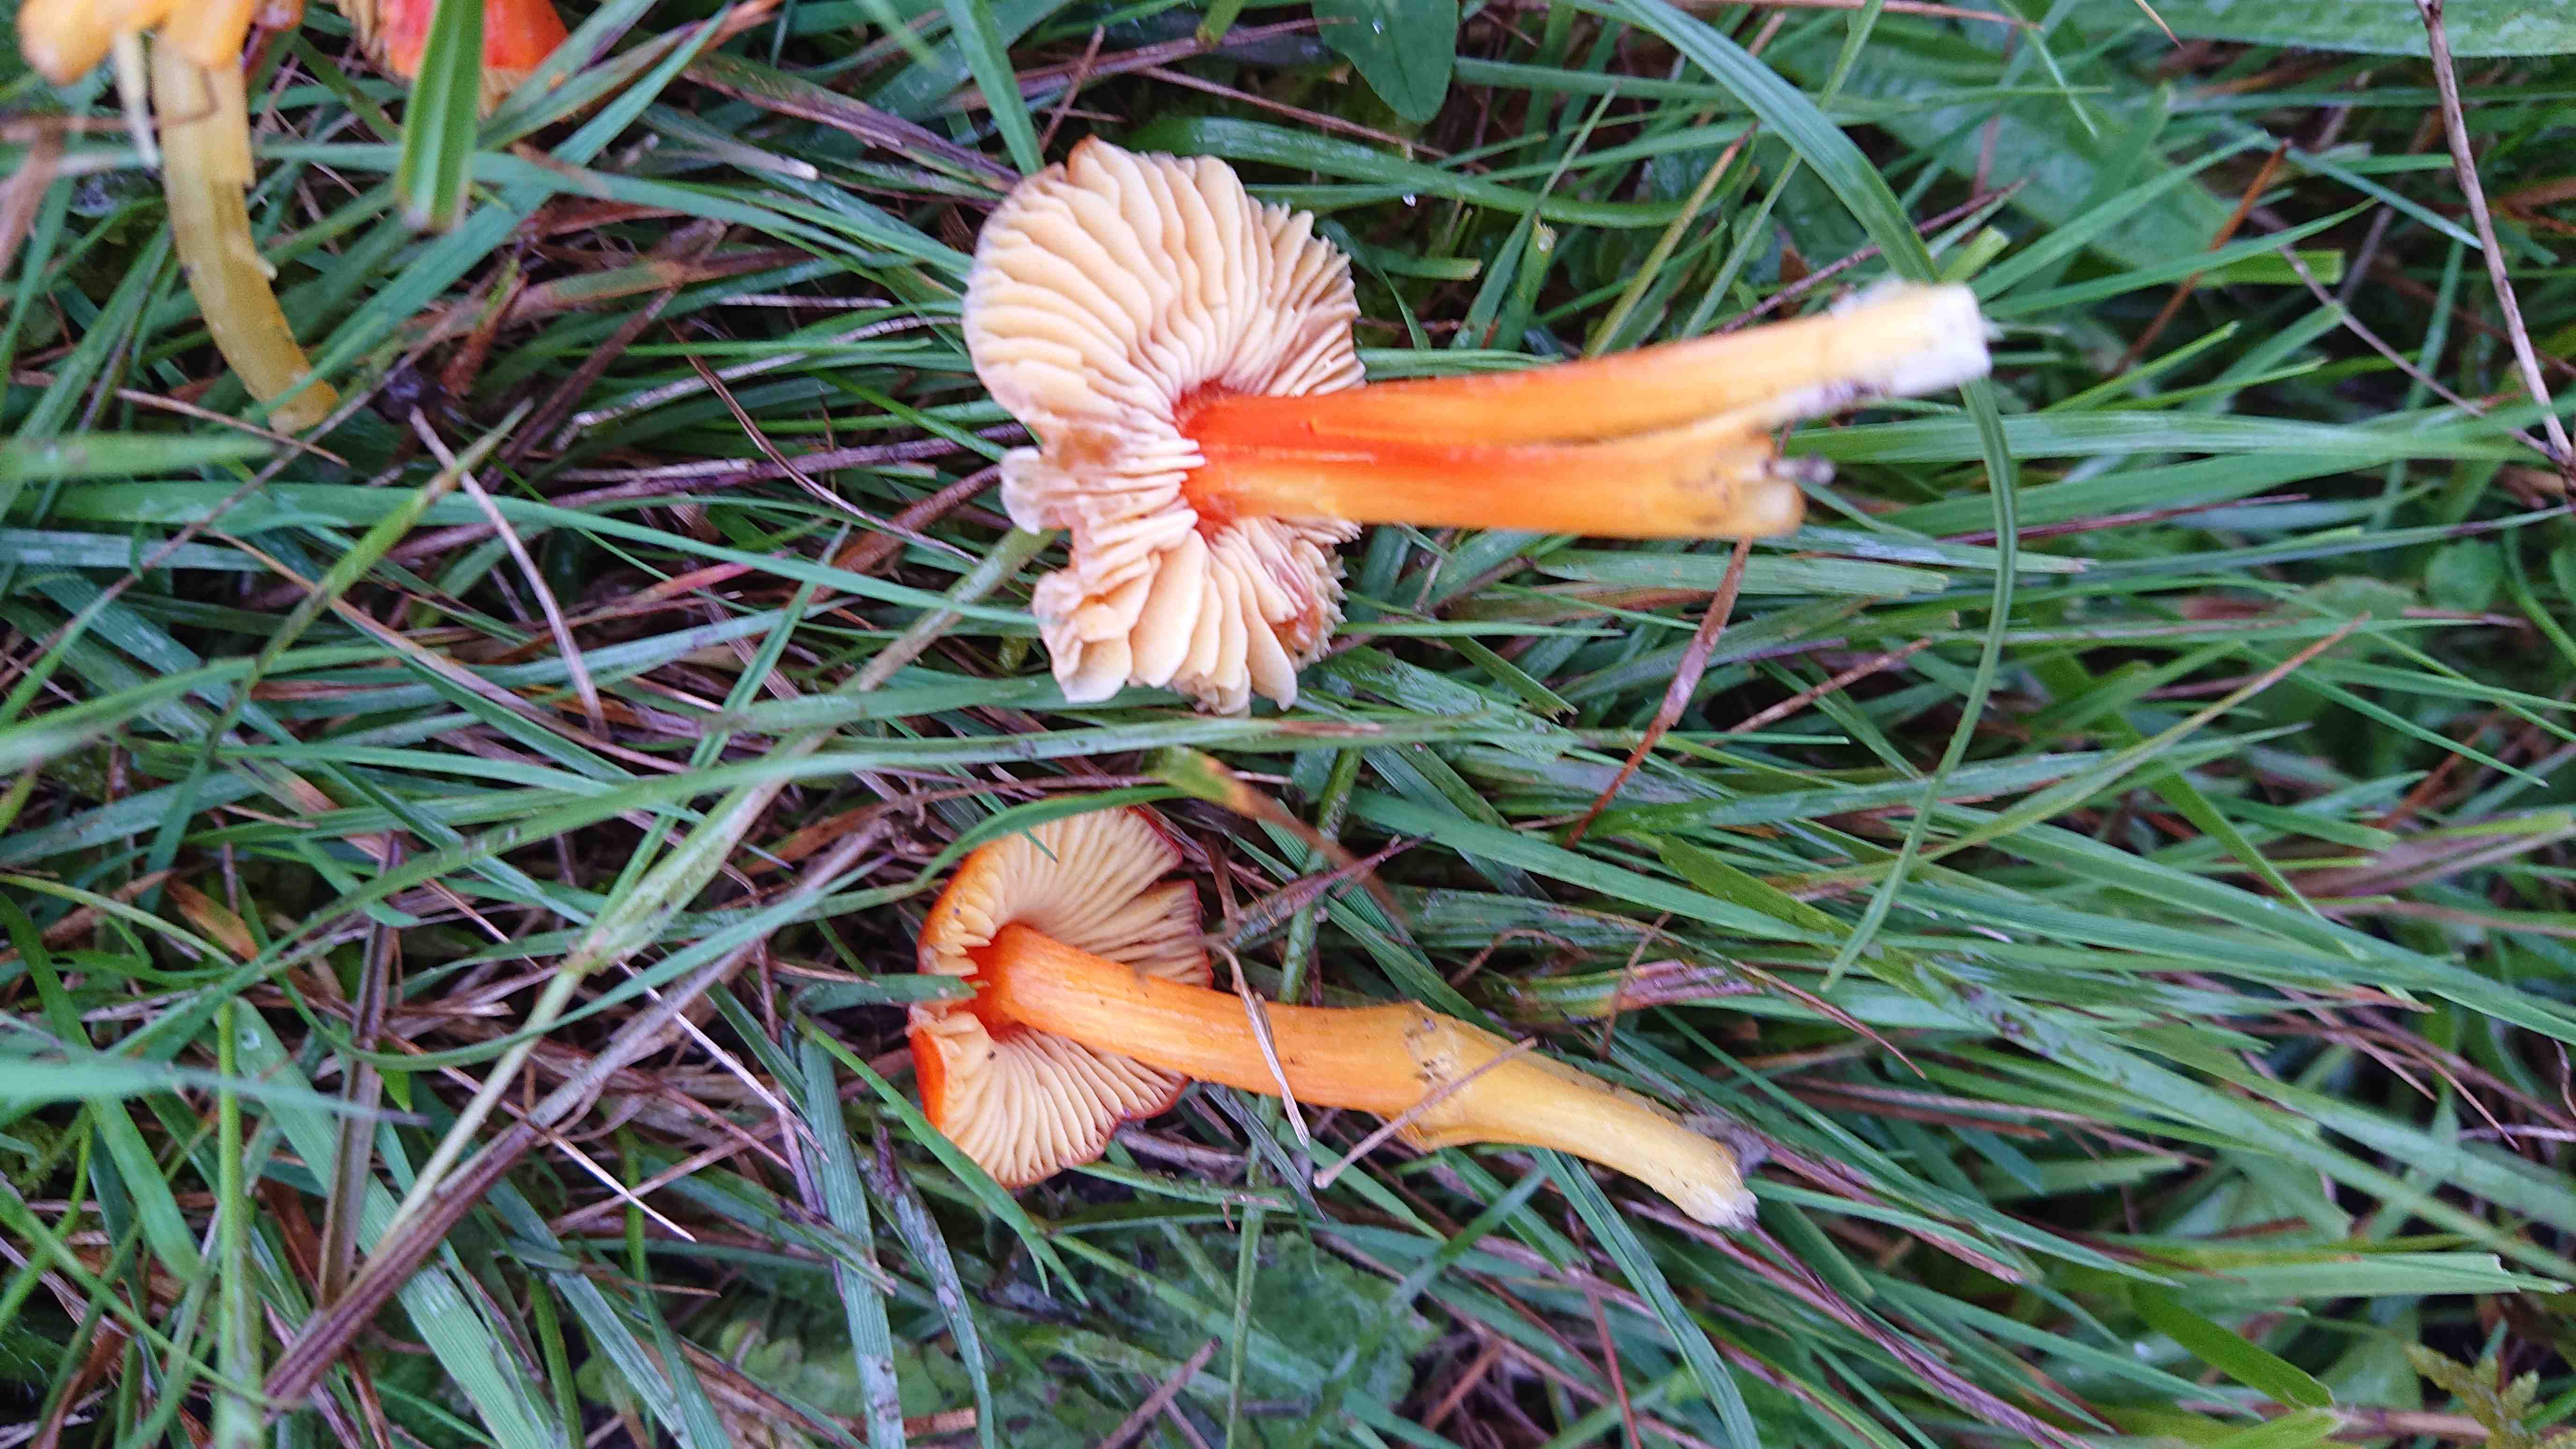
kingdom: Fungi
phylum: Basidiomycota
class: Agaricomycetes
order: Agaricales
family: Hygrophoraceae
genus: Hygrocybe
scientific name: Hygrocybe
